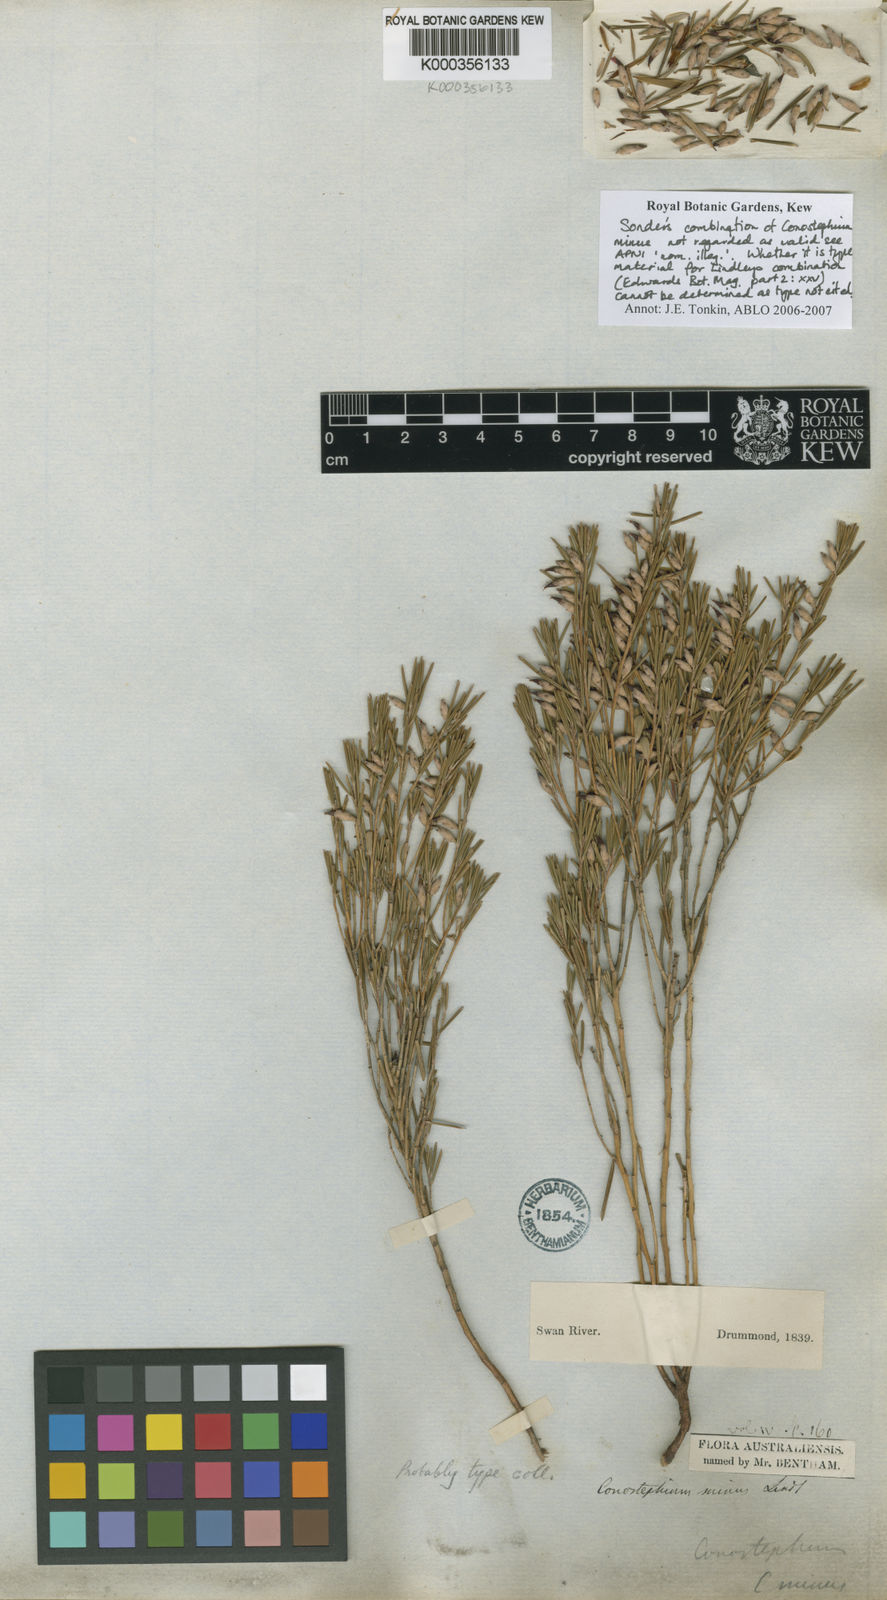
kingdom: Plantae
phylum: Tracheophyta
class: Magnoliopsida
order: Ericales
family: Ericaceae
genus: Conostephium
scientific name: Conostephium minus
